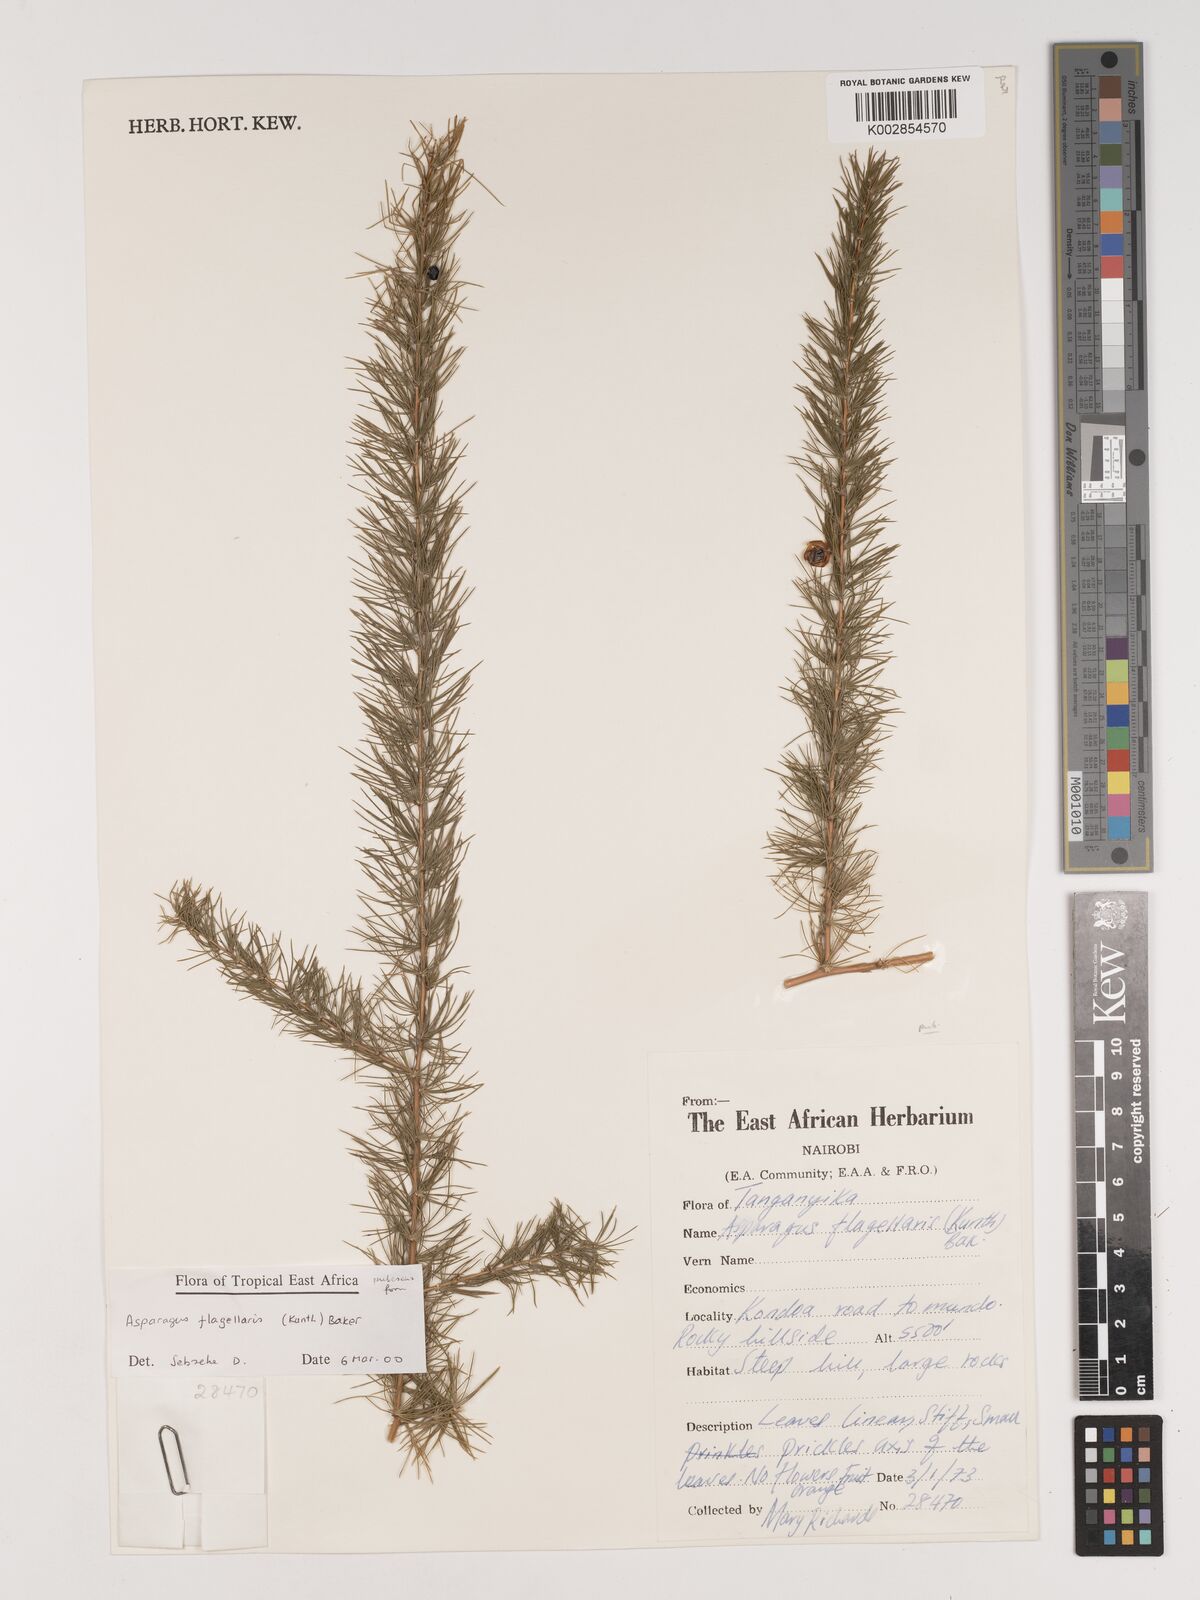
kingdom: Plantae
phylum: Tracheophyta
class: Liliopsida
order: Asparagales
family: Asparagaceae
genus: Asparagus
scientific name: Asparagus flagellaris
